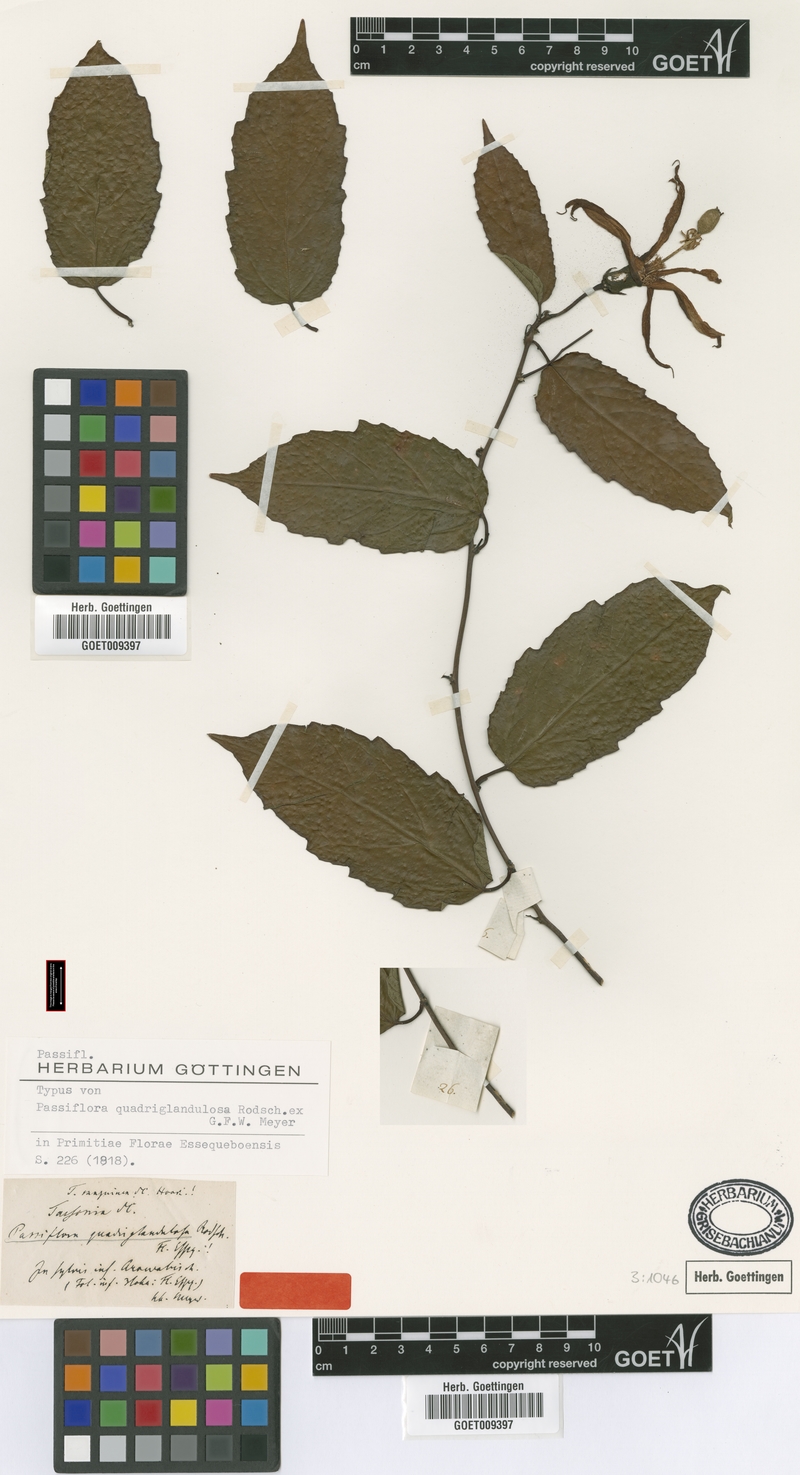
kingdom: Plantae
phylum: Tracheophyta
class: Magnoliopsida
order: Malpighiales
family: Passifloraceae
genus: Passiflora
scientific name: Passiflora quadriglandulosa
